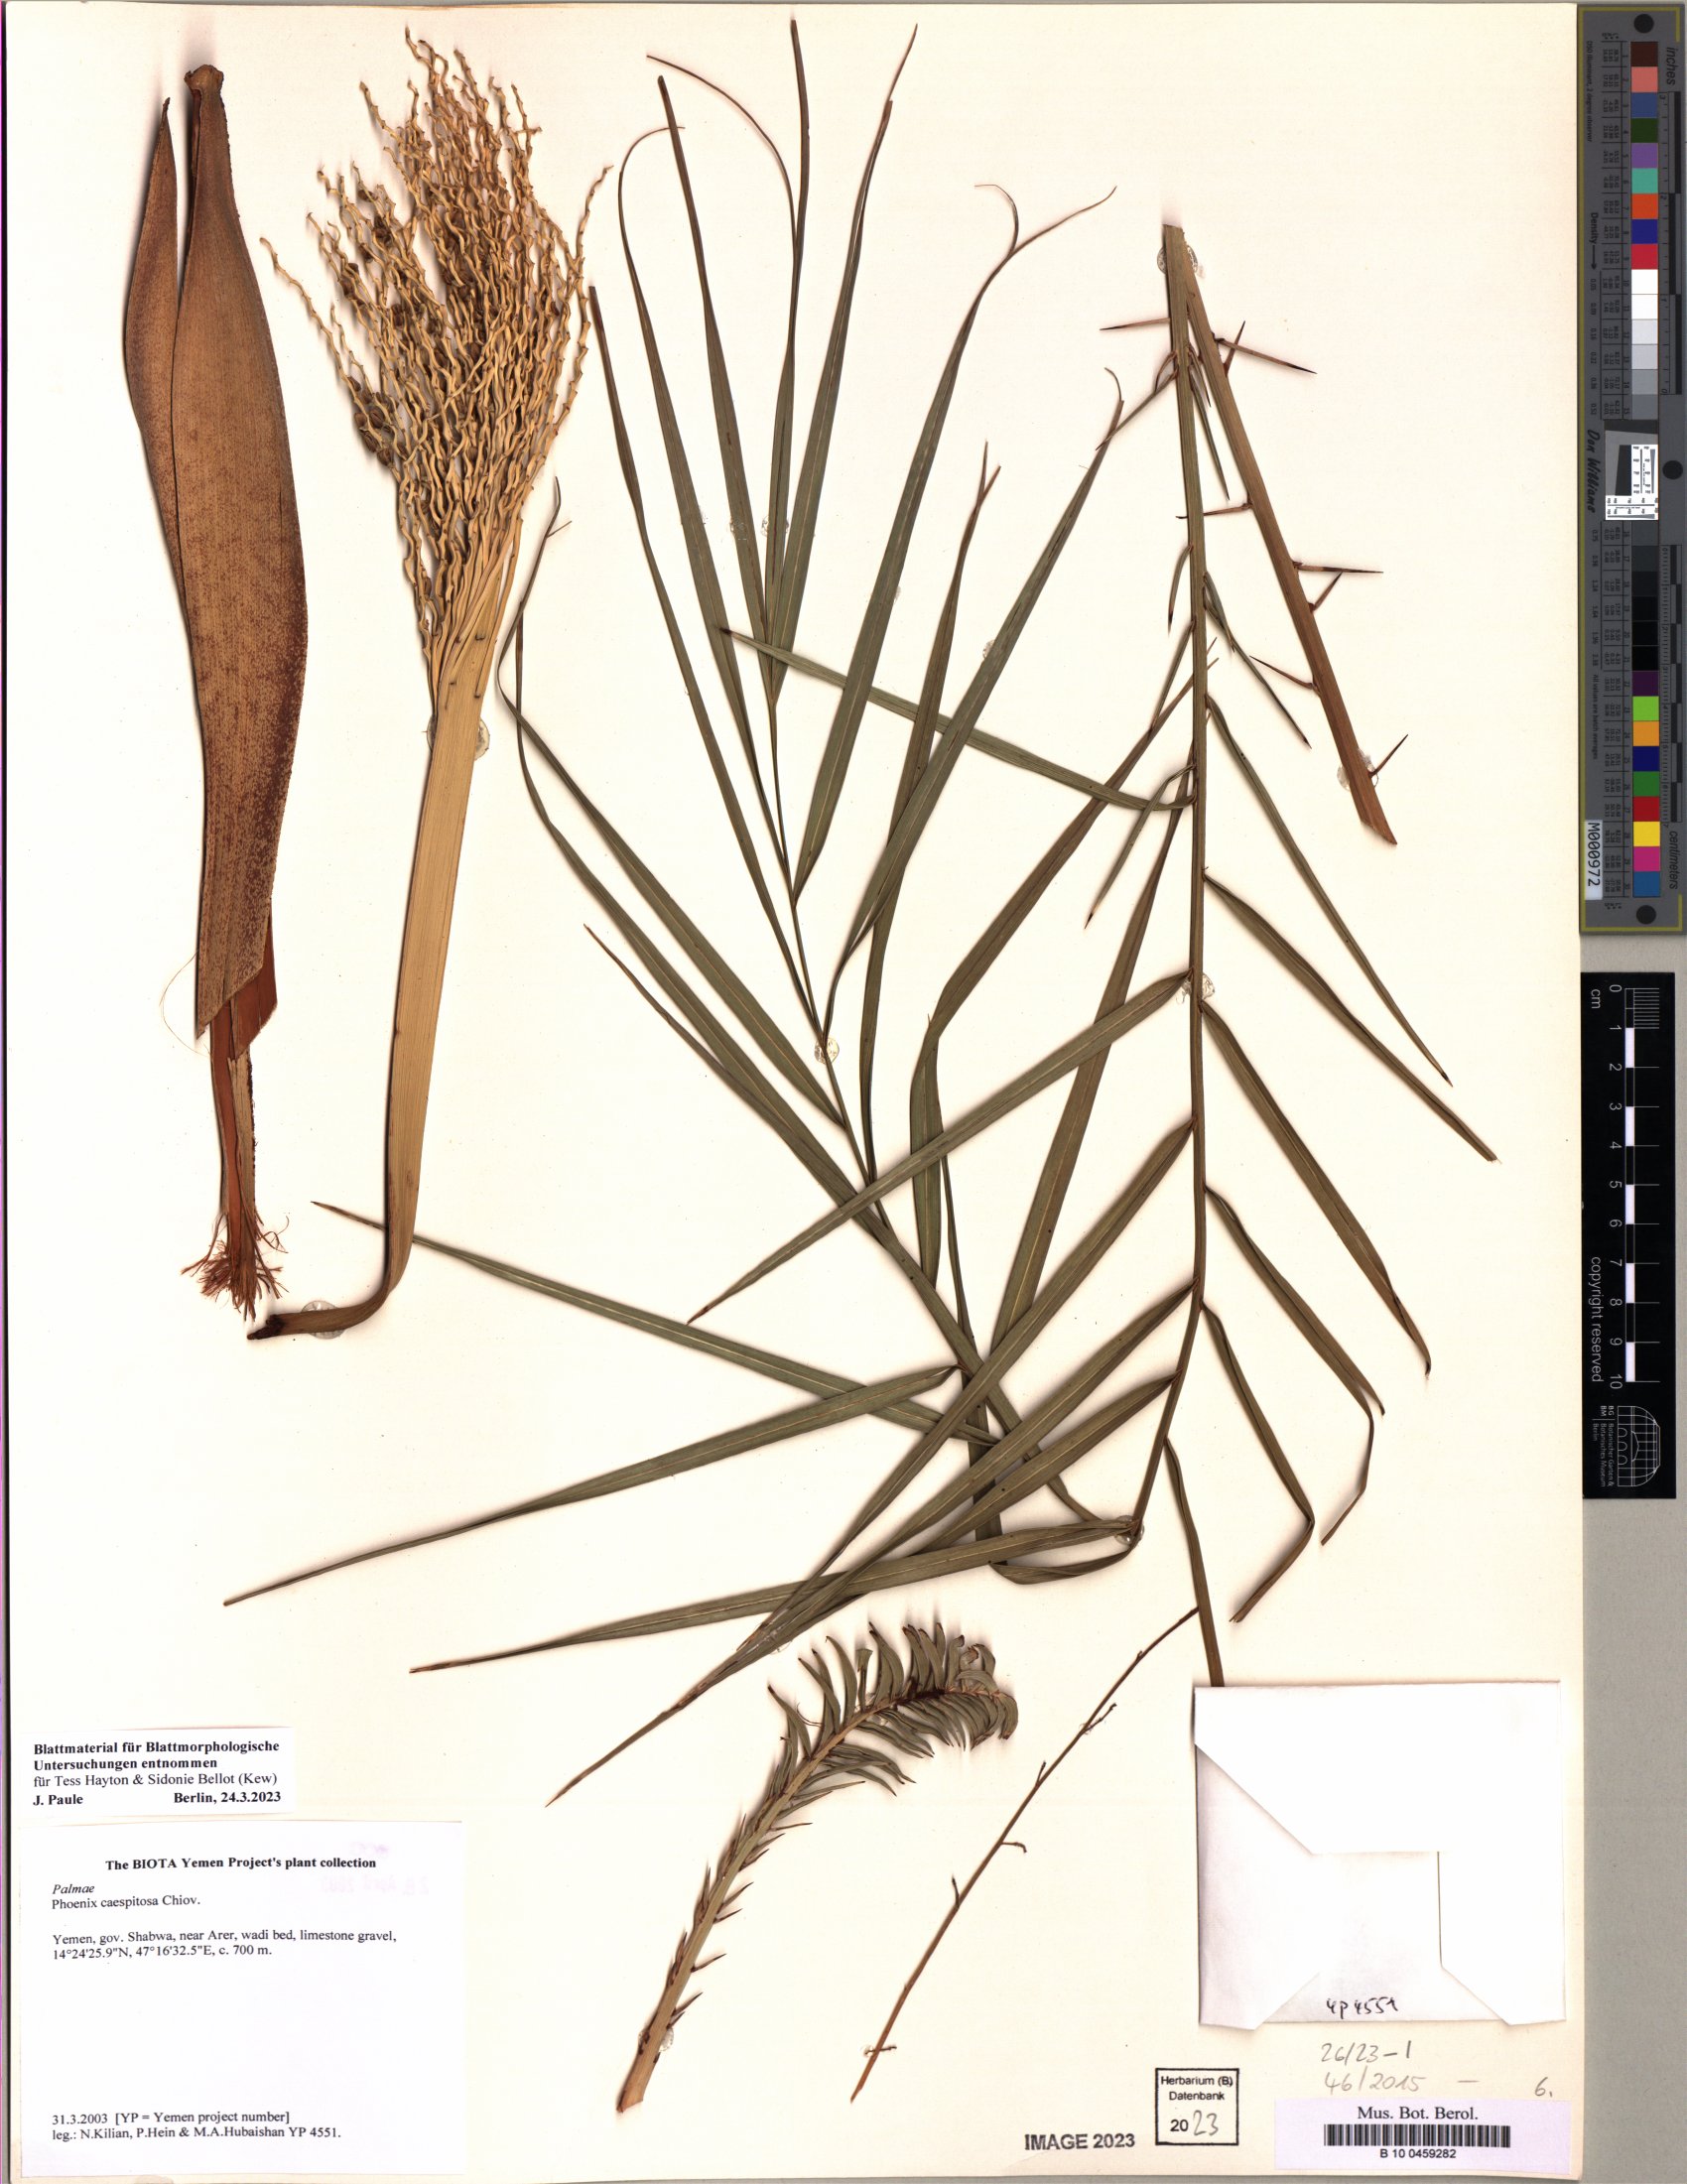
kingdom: Plantae
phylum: Tracheophyta
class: Liliopsida
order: Arecales
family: Arecaceae
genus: Phoenix
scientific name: Phoenix caespitosa
